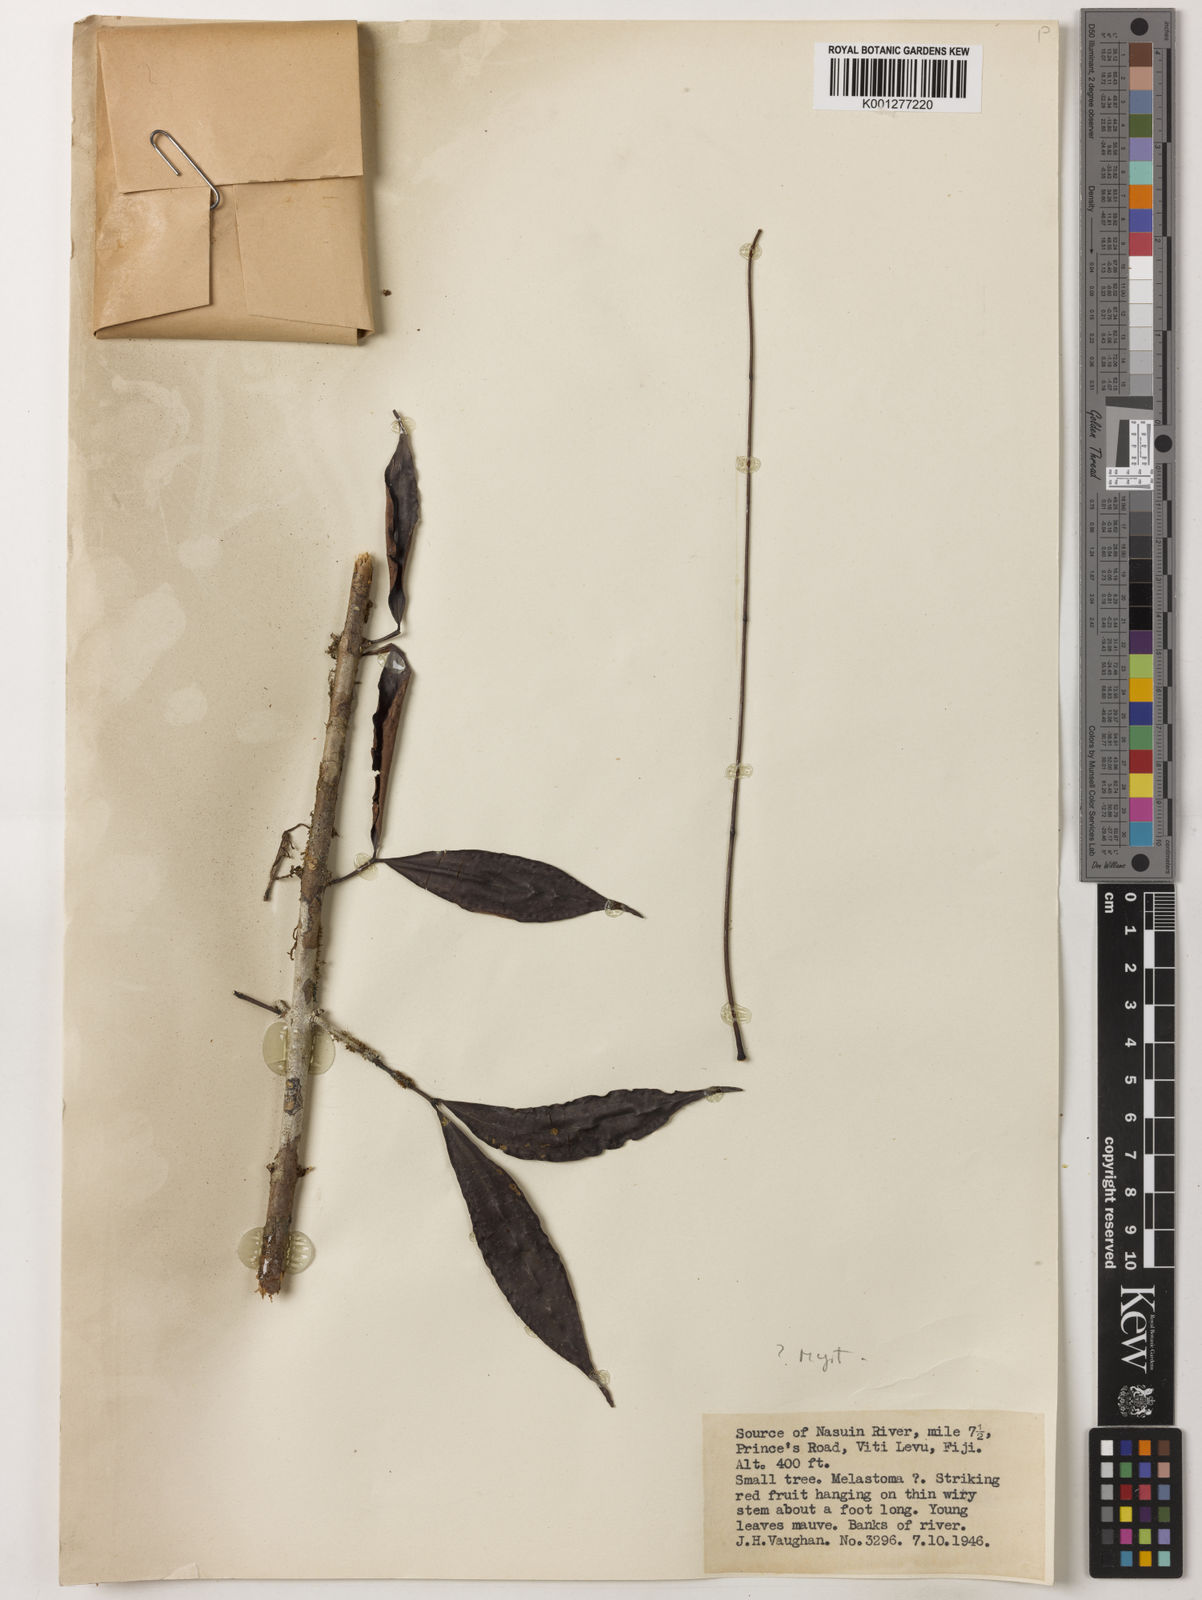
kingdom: Plantae
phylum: Tracheophyta
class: Magnoliopsida
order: Myrtales
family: Myrtaceae
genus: Syzygium
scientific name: Syzygium gracilipes
